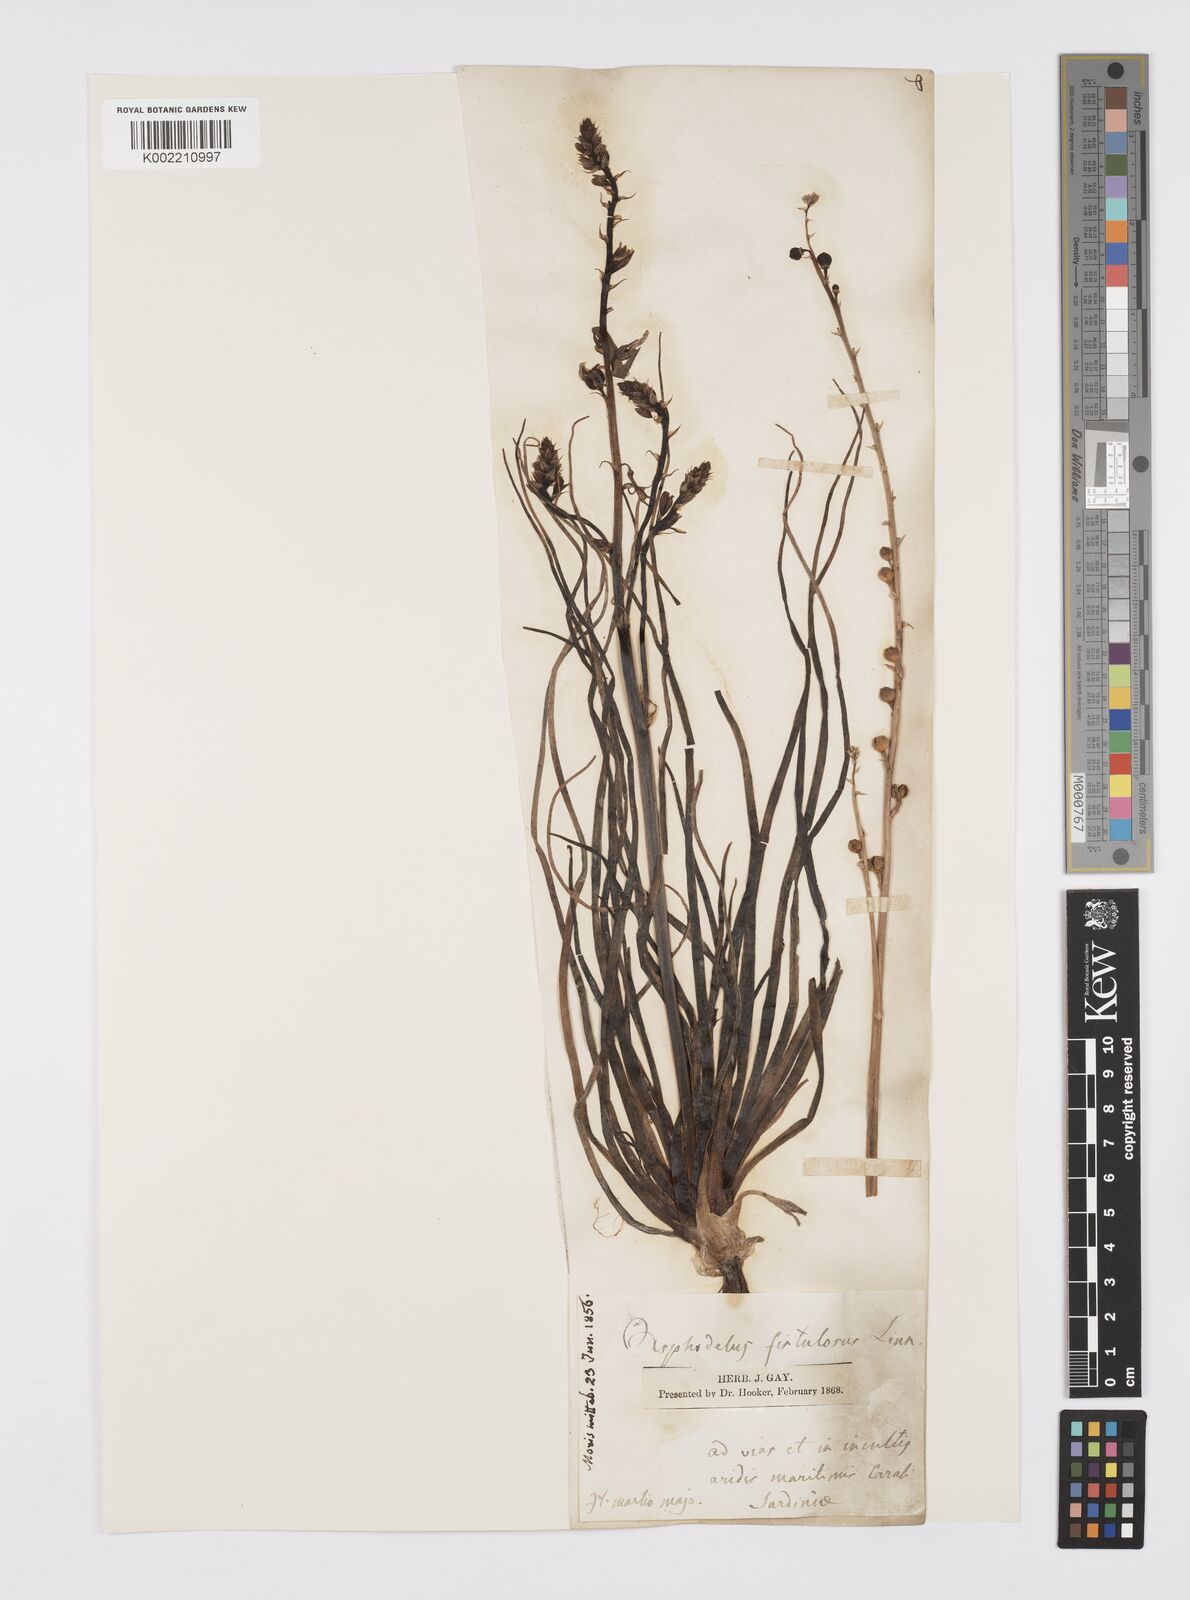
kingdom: Plantae
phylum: Tracheophyta
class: Liliopsida
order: Asparagales
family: Asphodelaceae
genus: Asphodelus
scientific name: Asphodelus fistulosus
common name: Onionweed
